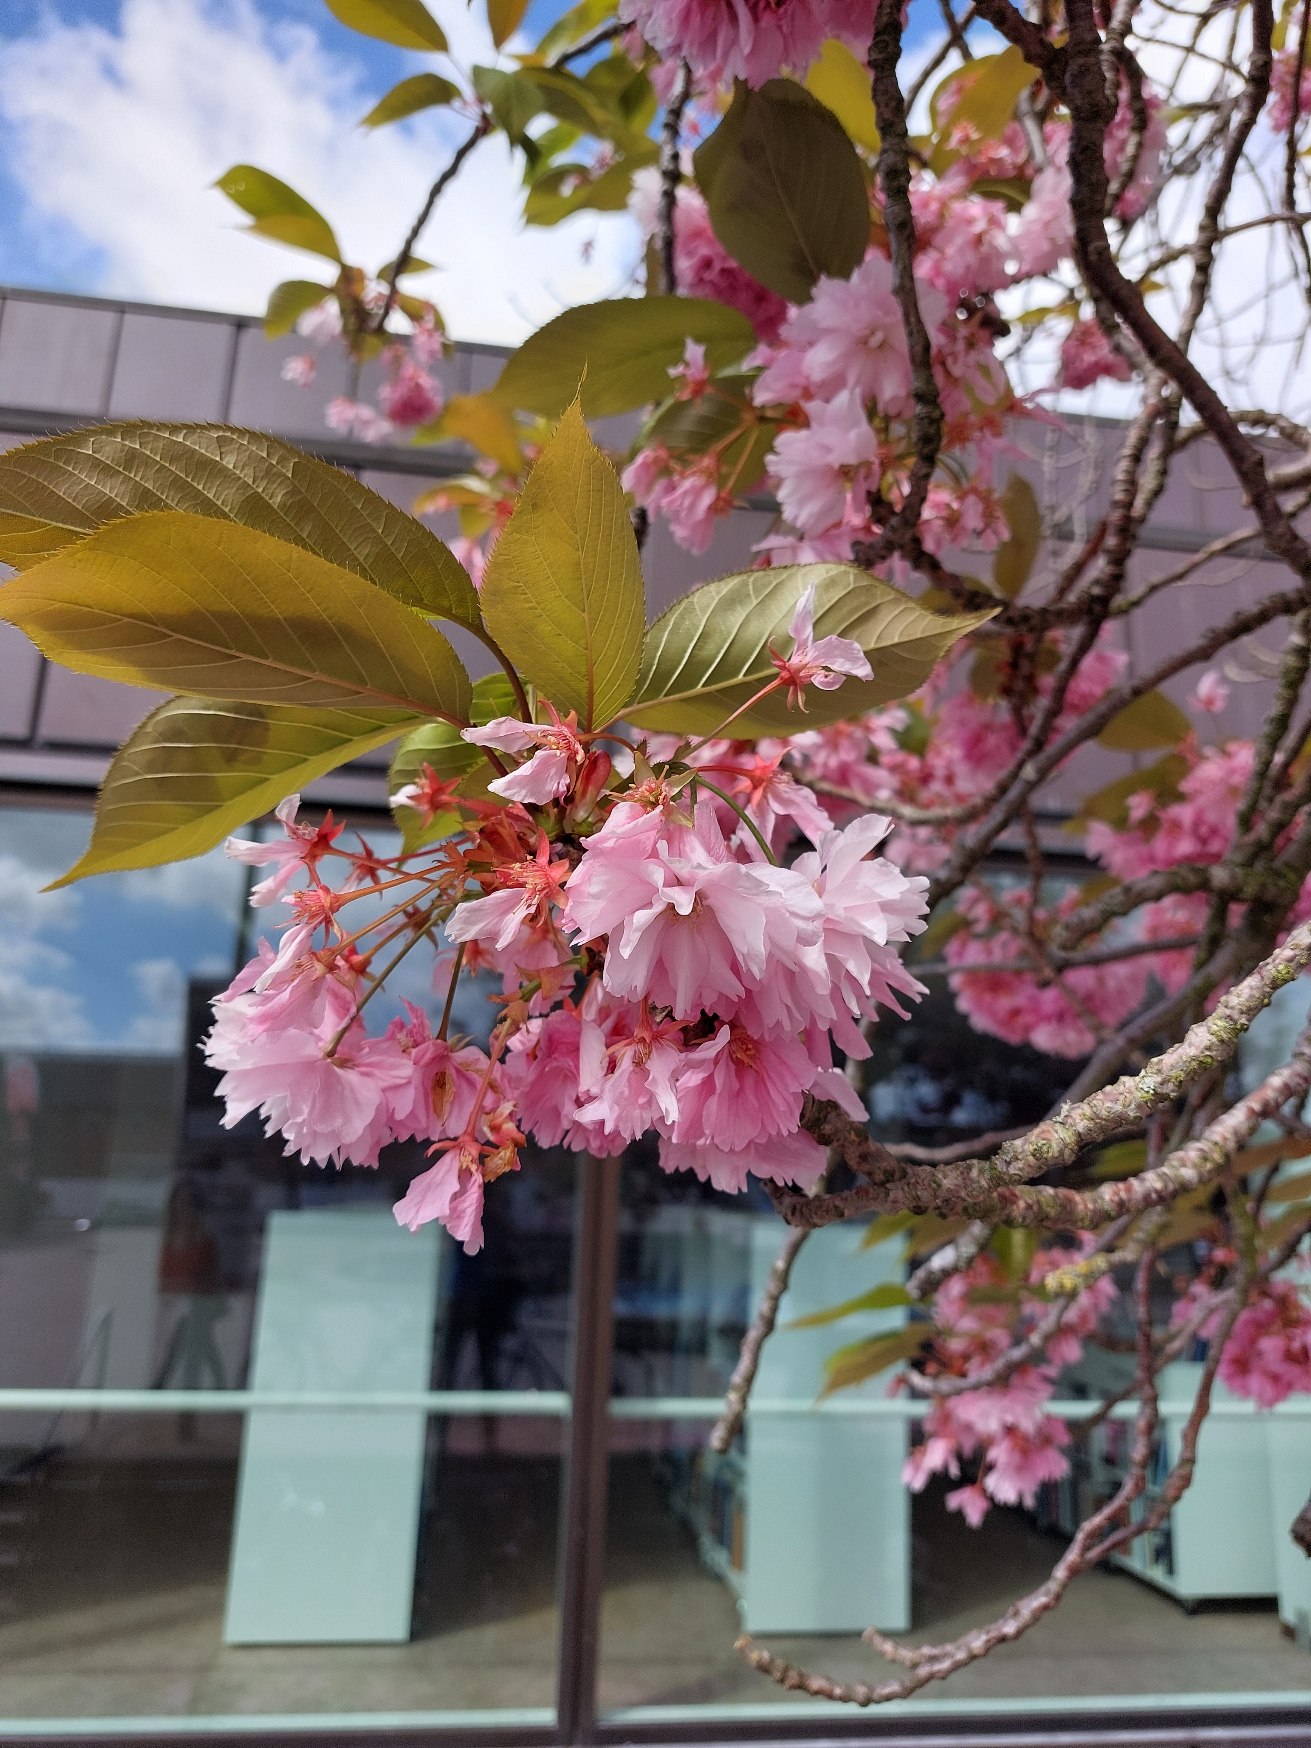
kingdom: Plantae
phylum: Tracheophyta
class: Magnoliopsida
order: Rosales
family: Rosaceae
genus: Prunus
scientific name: Prunus
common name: Blommeslægten
